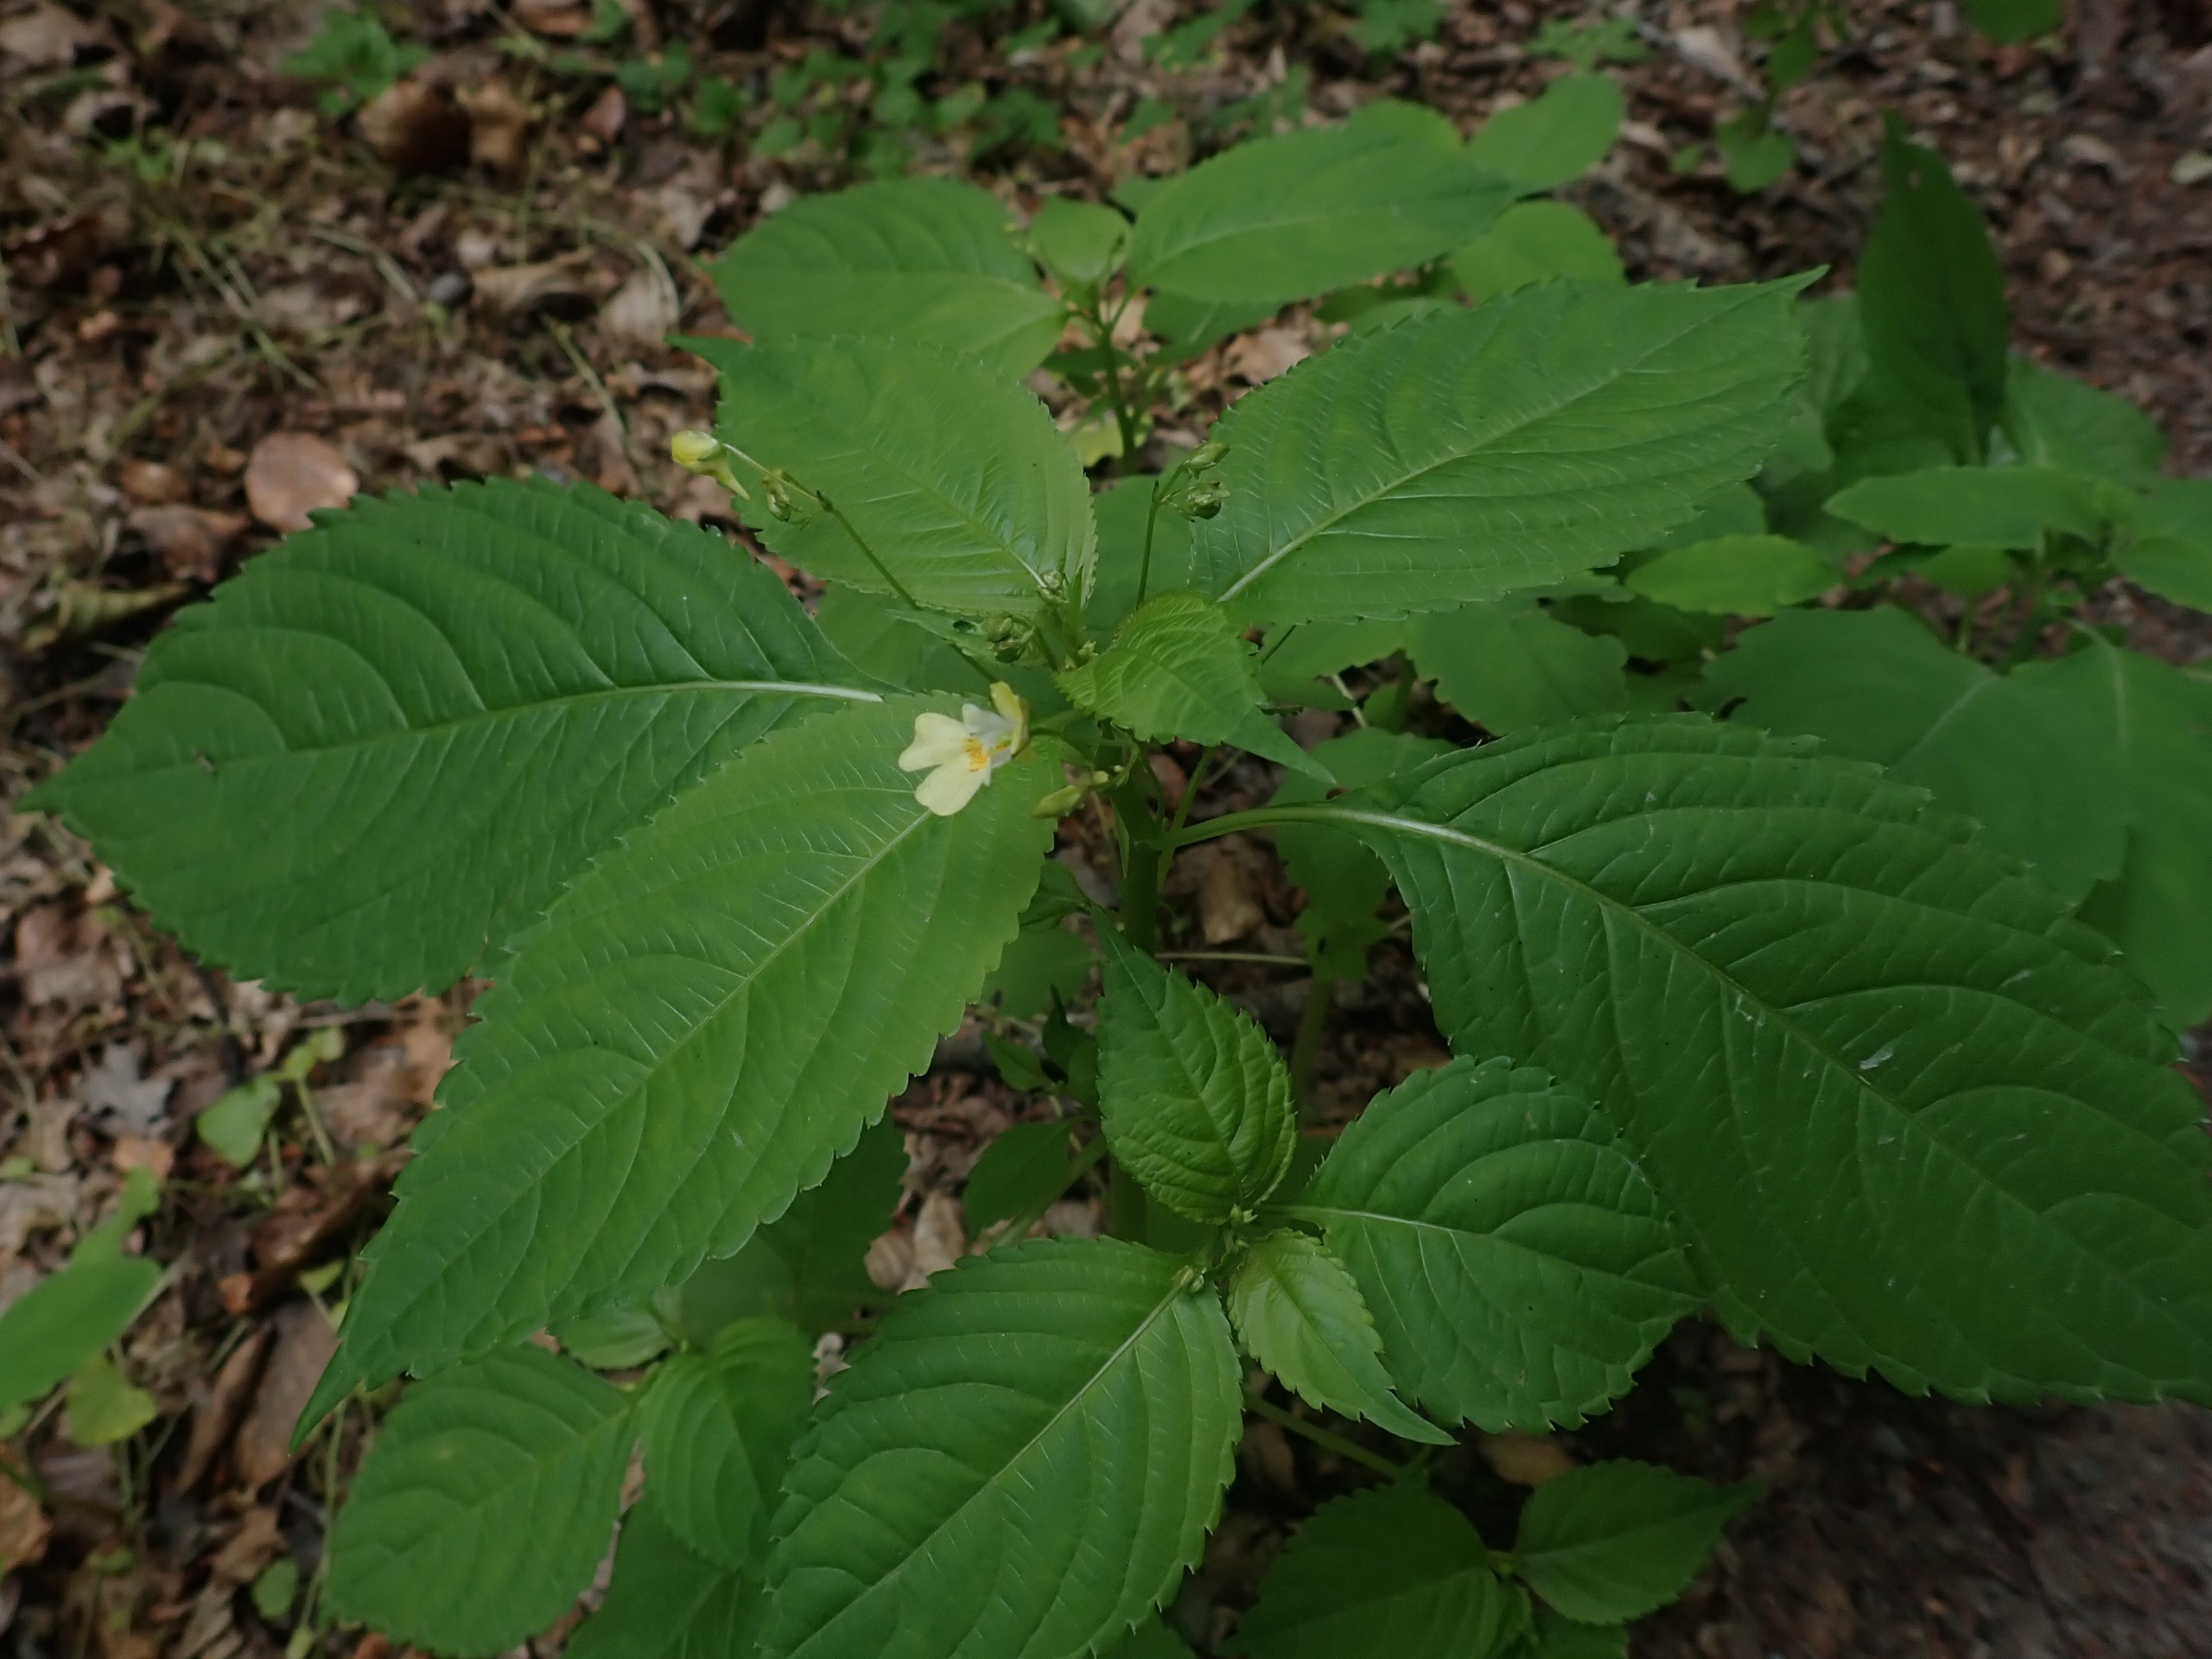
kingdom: Plantae
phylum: Tracheophyta
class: Magnoliopsida
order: Ericales
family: Balsaminaceae
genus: Impatiens
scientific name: Impatiens parviflora
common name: Småblomstret balsamin
